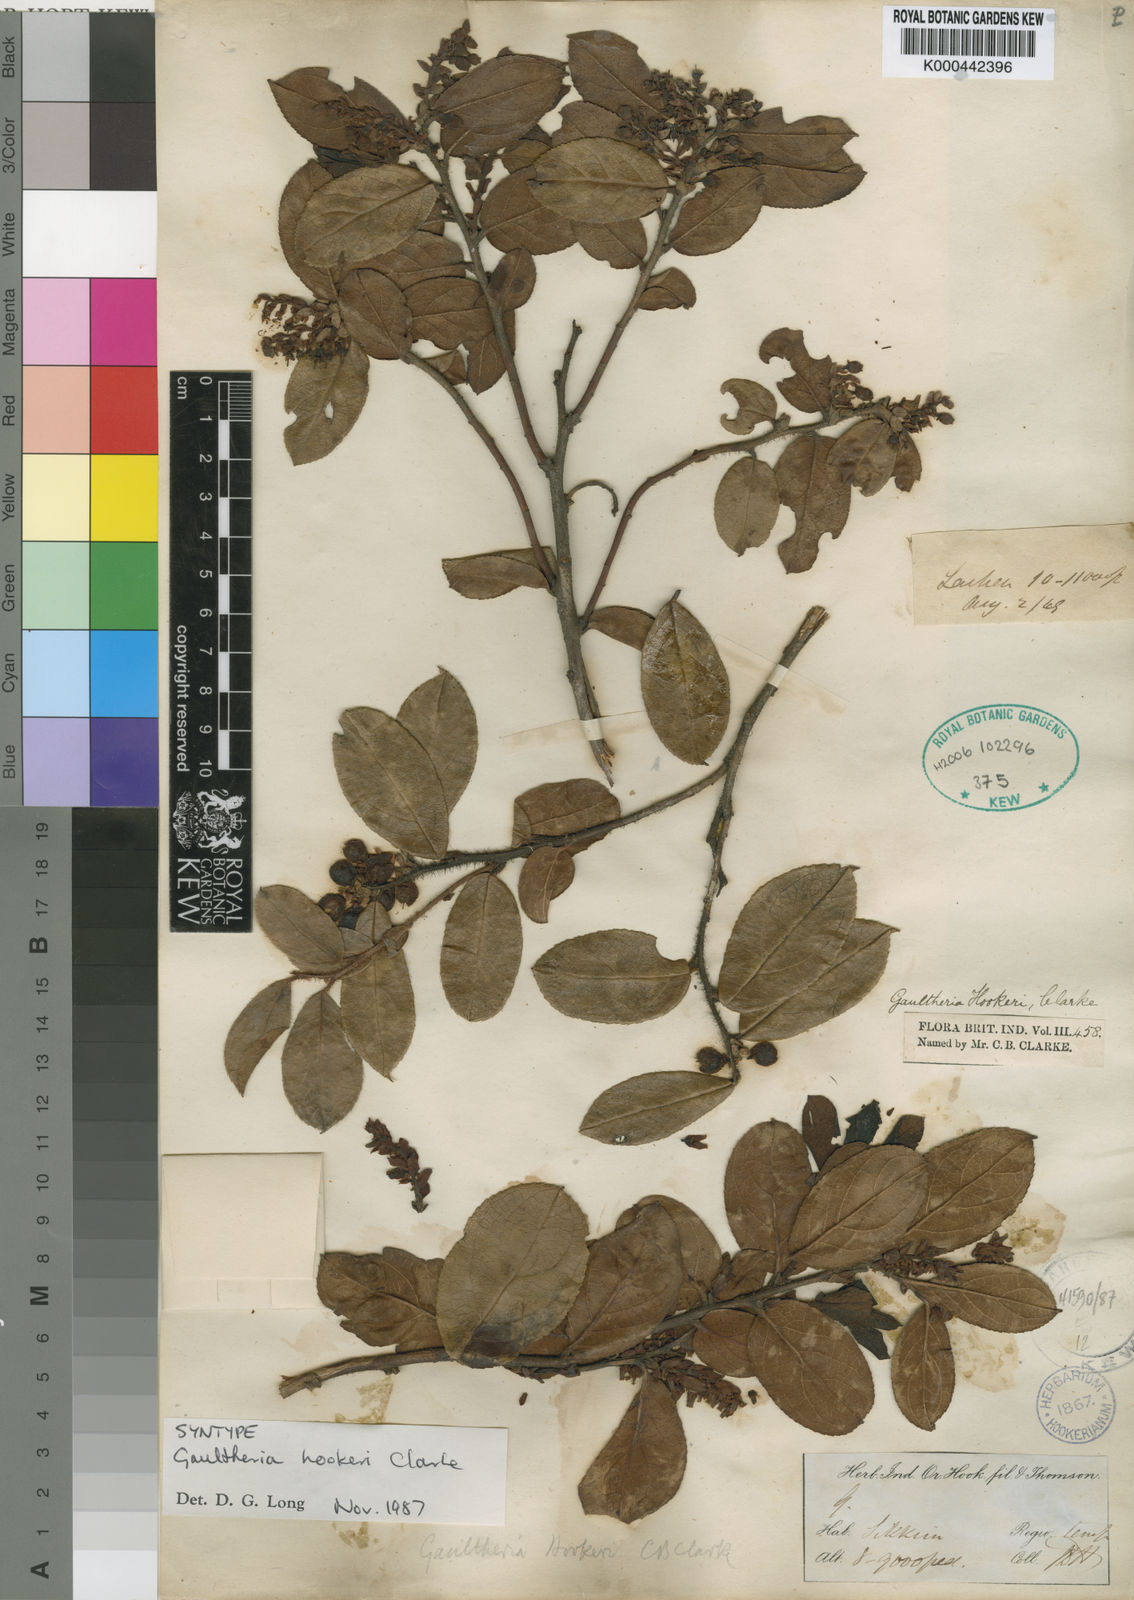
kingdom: Plantae
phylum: Tracheophyta
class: Magnoliopsida
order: Ericales
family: Ericaceae
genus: Gaultheria
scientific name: Gaultheria hookeri
